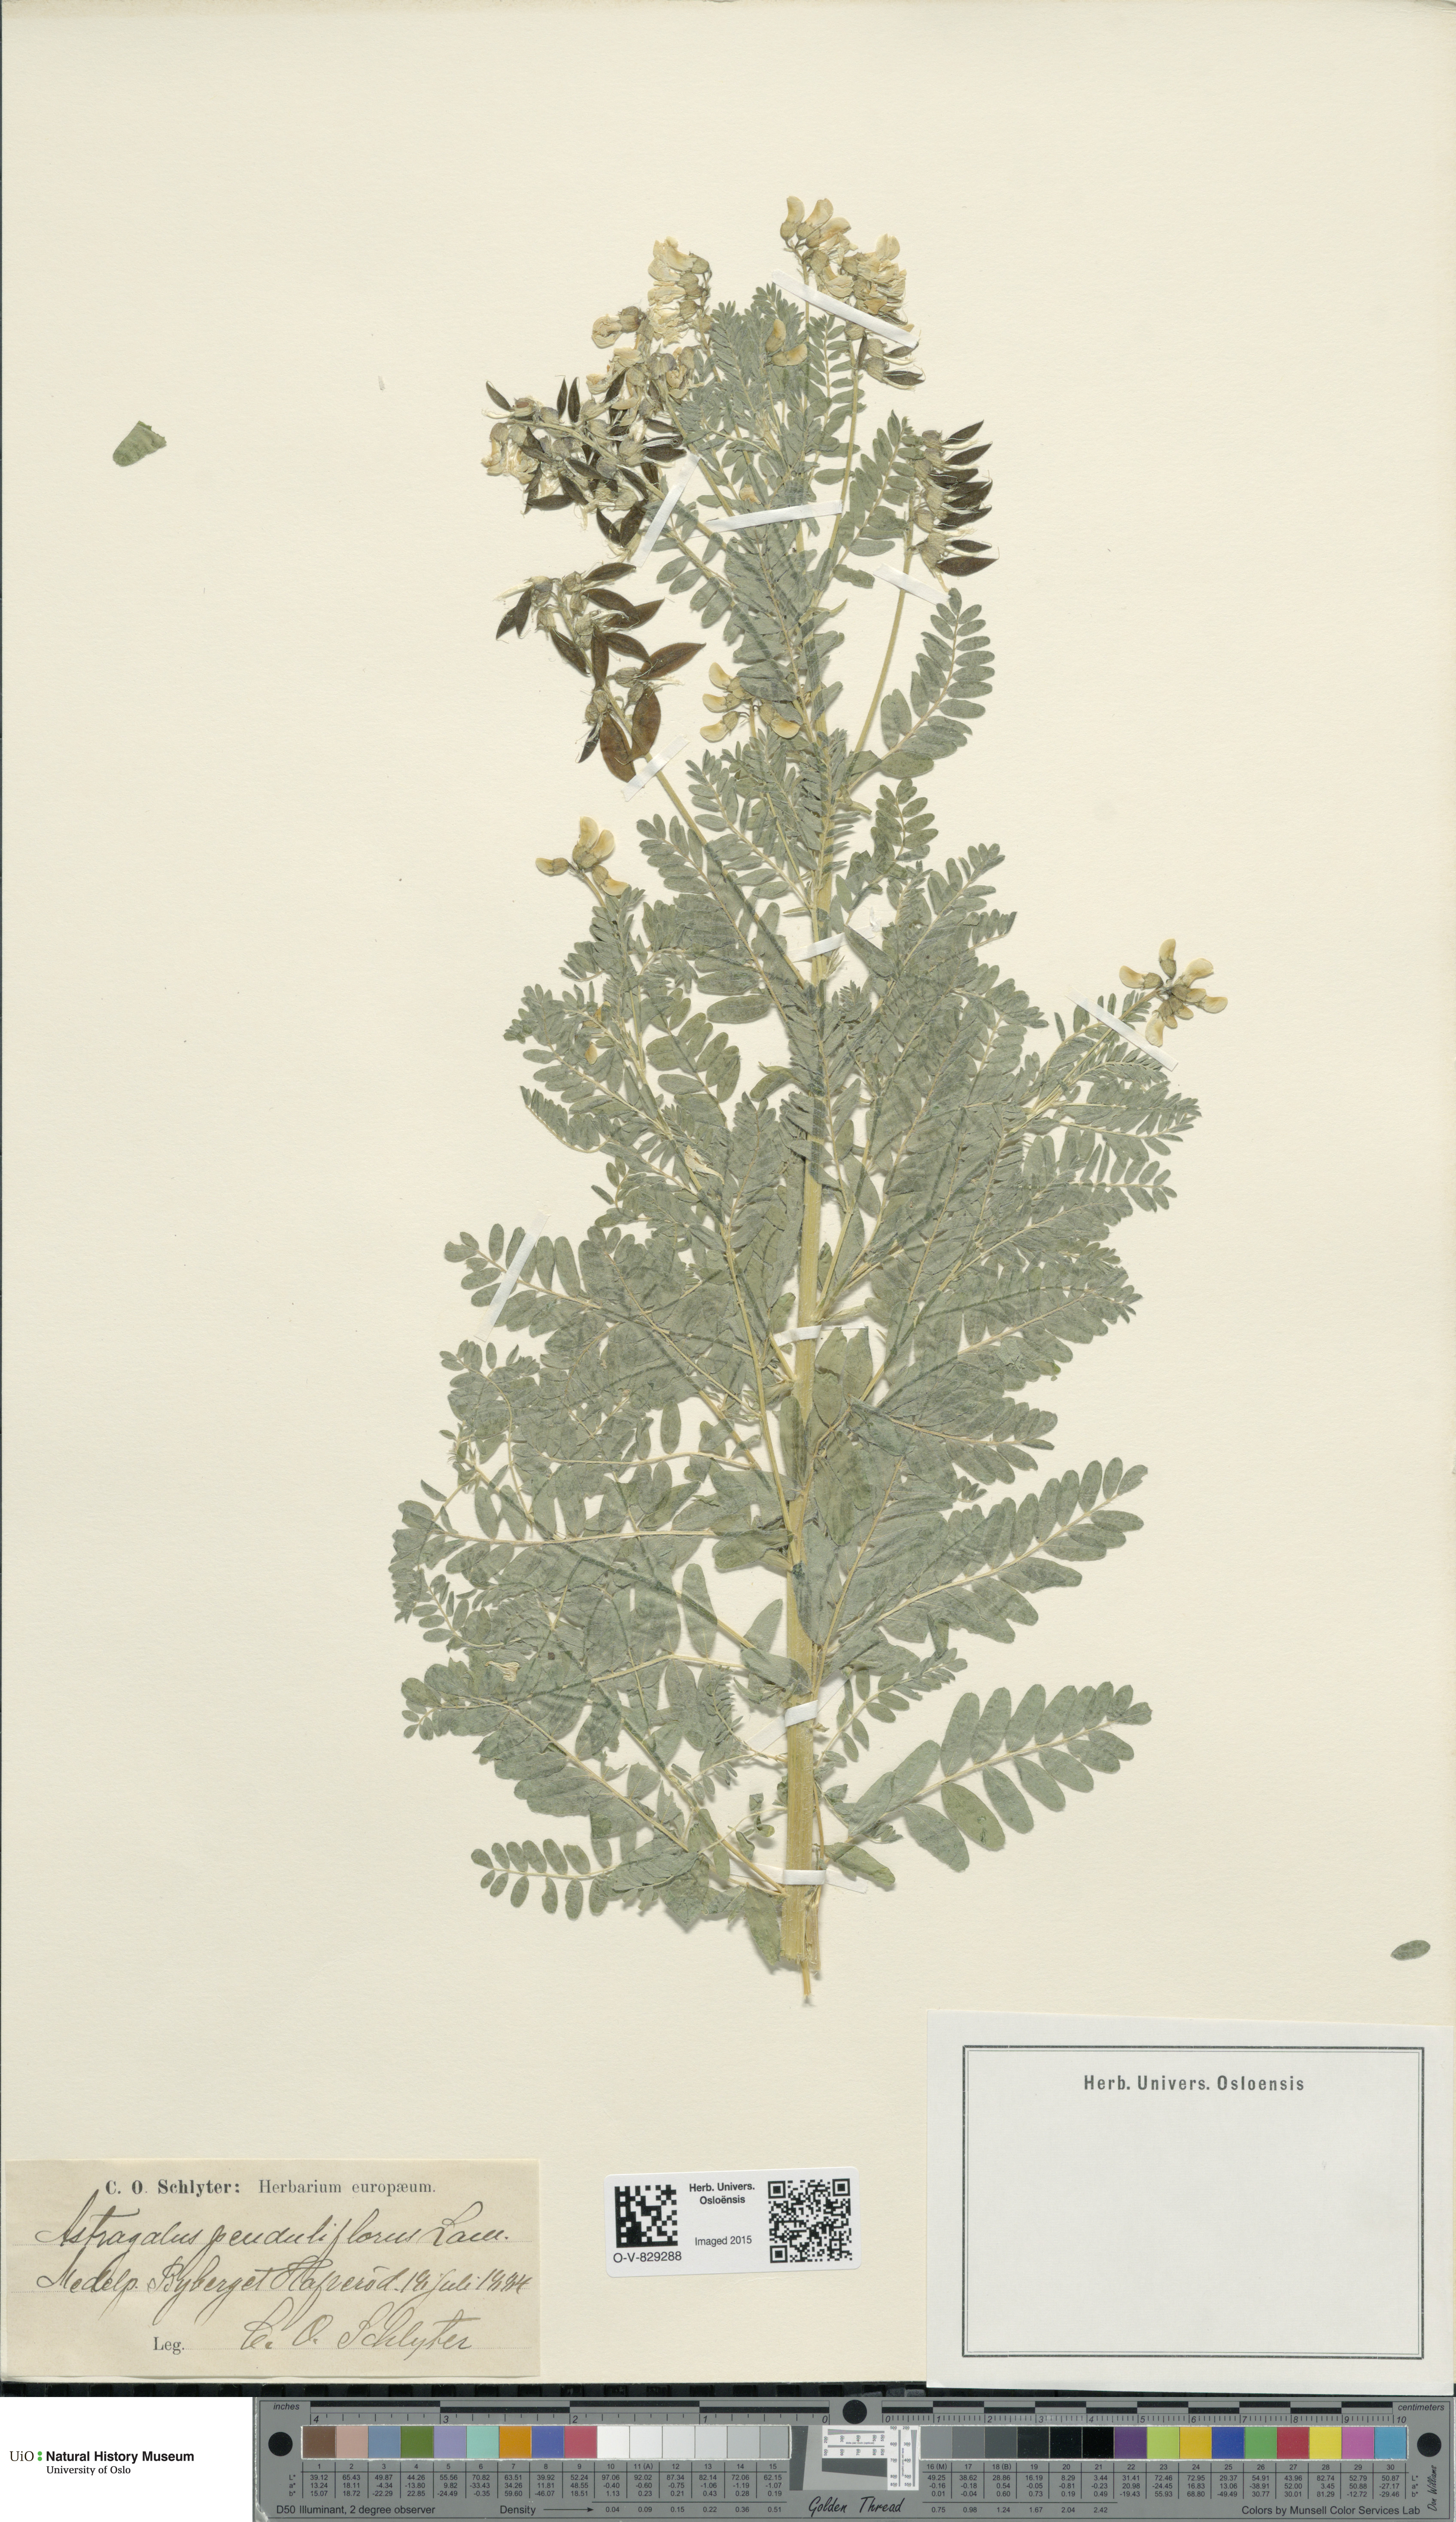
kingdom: Plantae
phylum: Tracheophyta
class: Magnoliopsida
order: Fabales
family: Fabaceae
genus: Astragalus
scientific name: Astragalus penduliflorus
